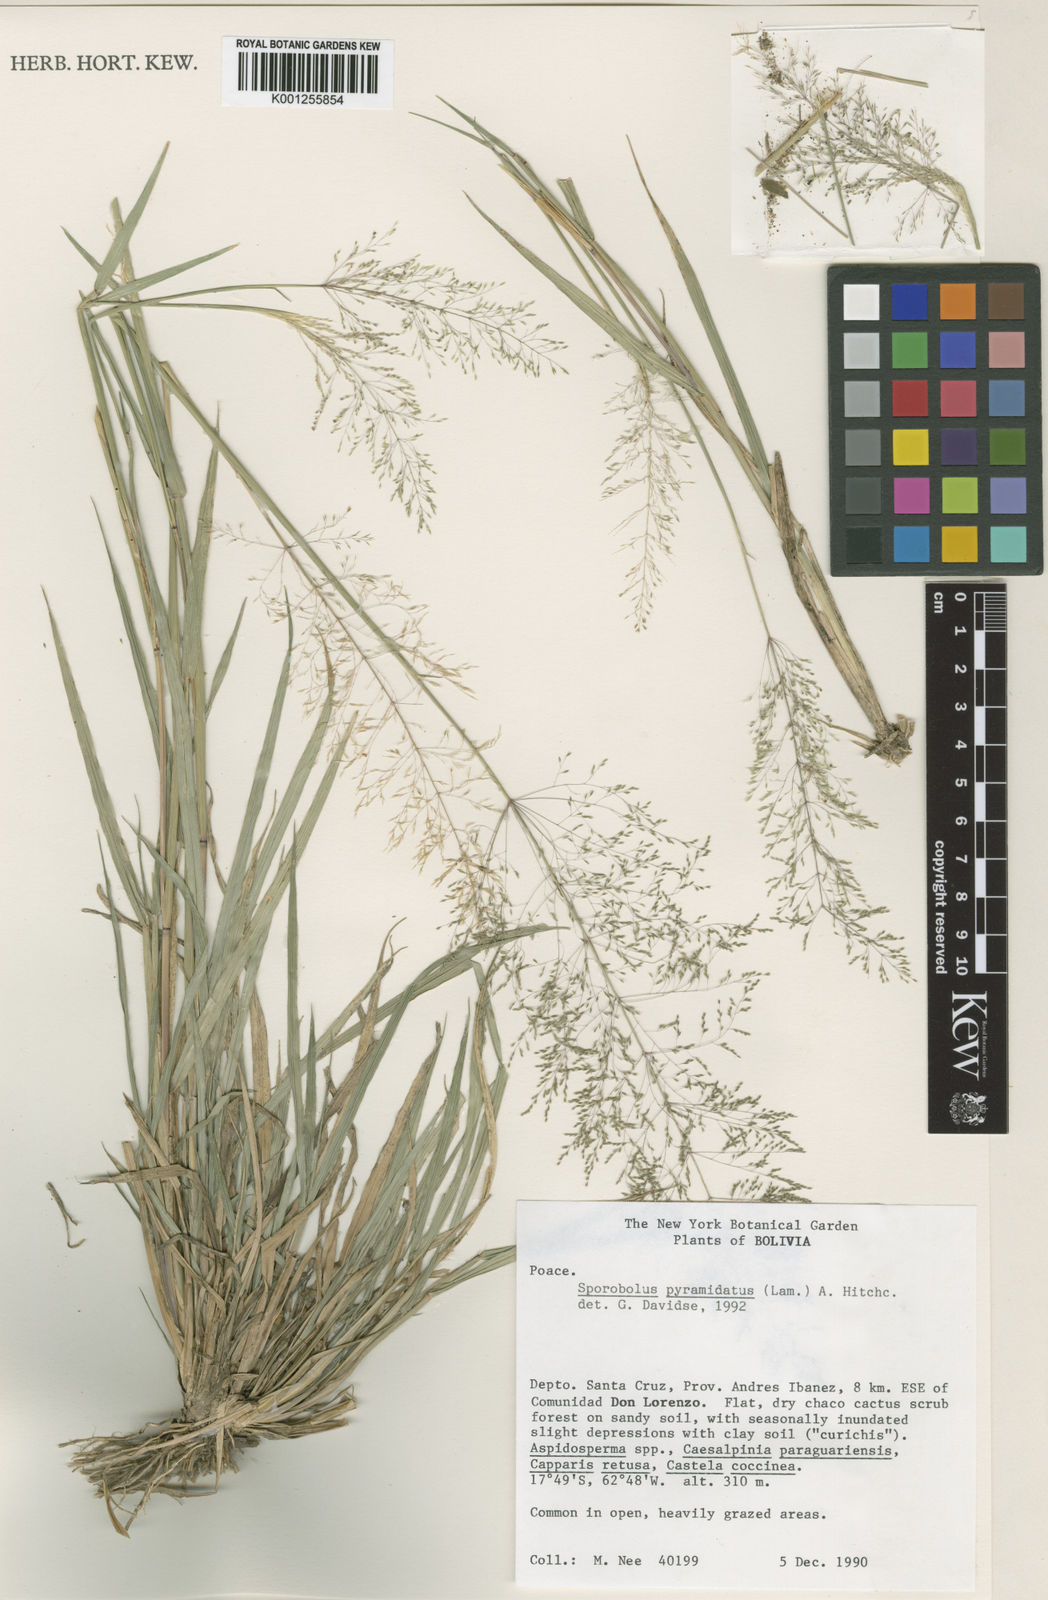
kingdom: Plantae
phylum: Tracheophyta
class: Liliopsida
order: Poales
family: Poaceae
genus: Sporobolus
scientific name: Sporobolus pyramidatus
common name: Whorled dropseed
